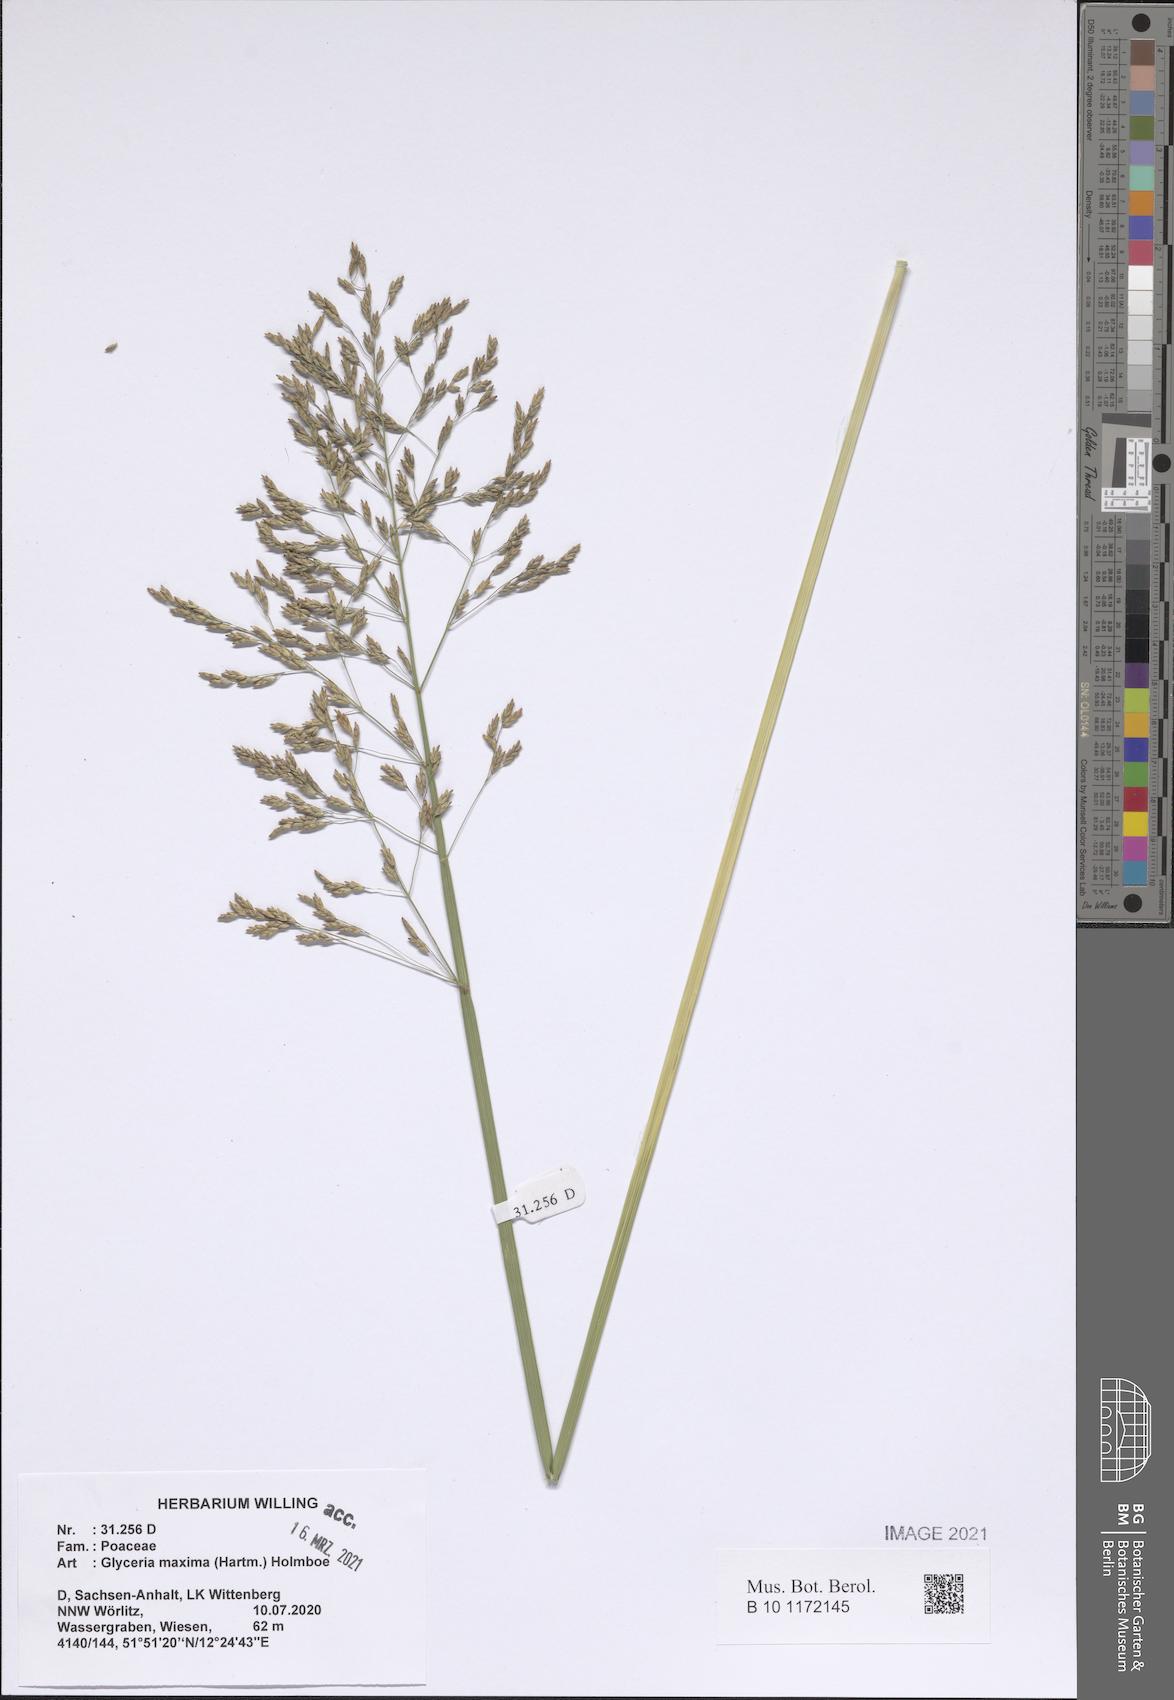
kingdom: Plantae
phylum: Tracheophyta
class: Liliopsida
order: Poales
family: Poaceae
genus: Glyceria
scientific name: Glyceria maxima
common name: Reed mannagrass
